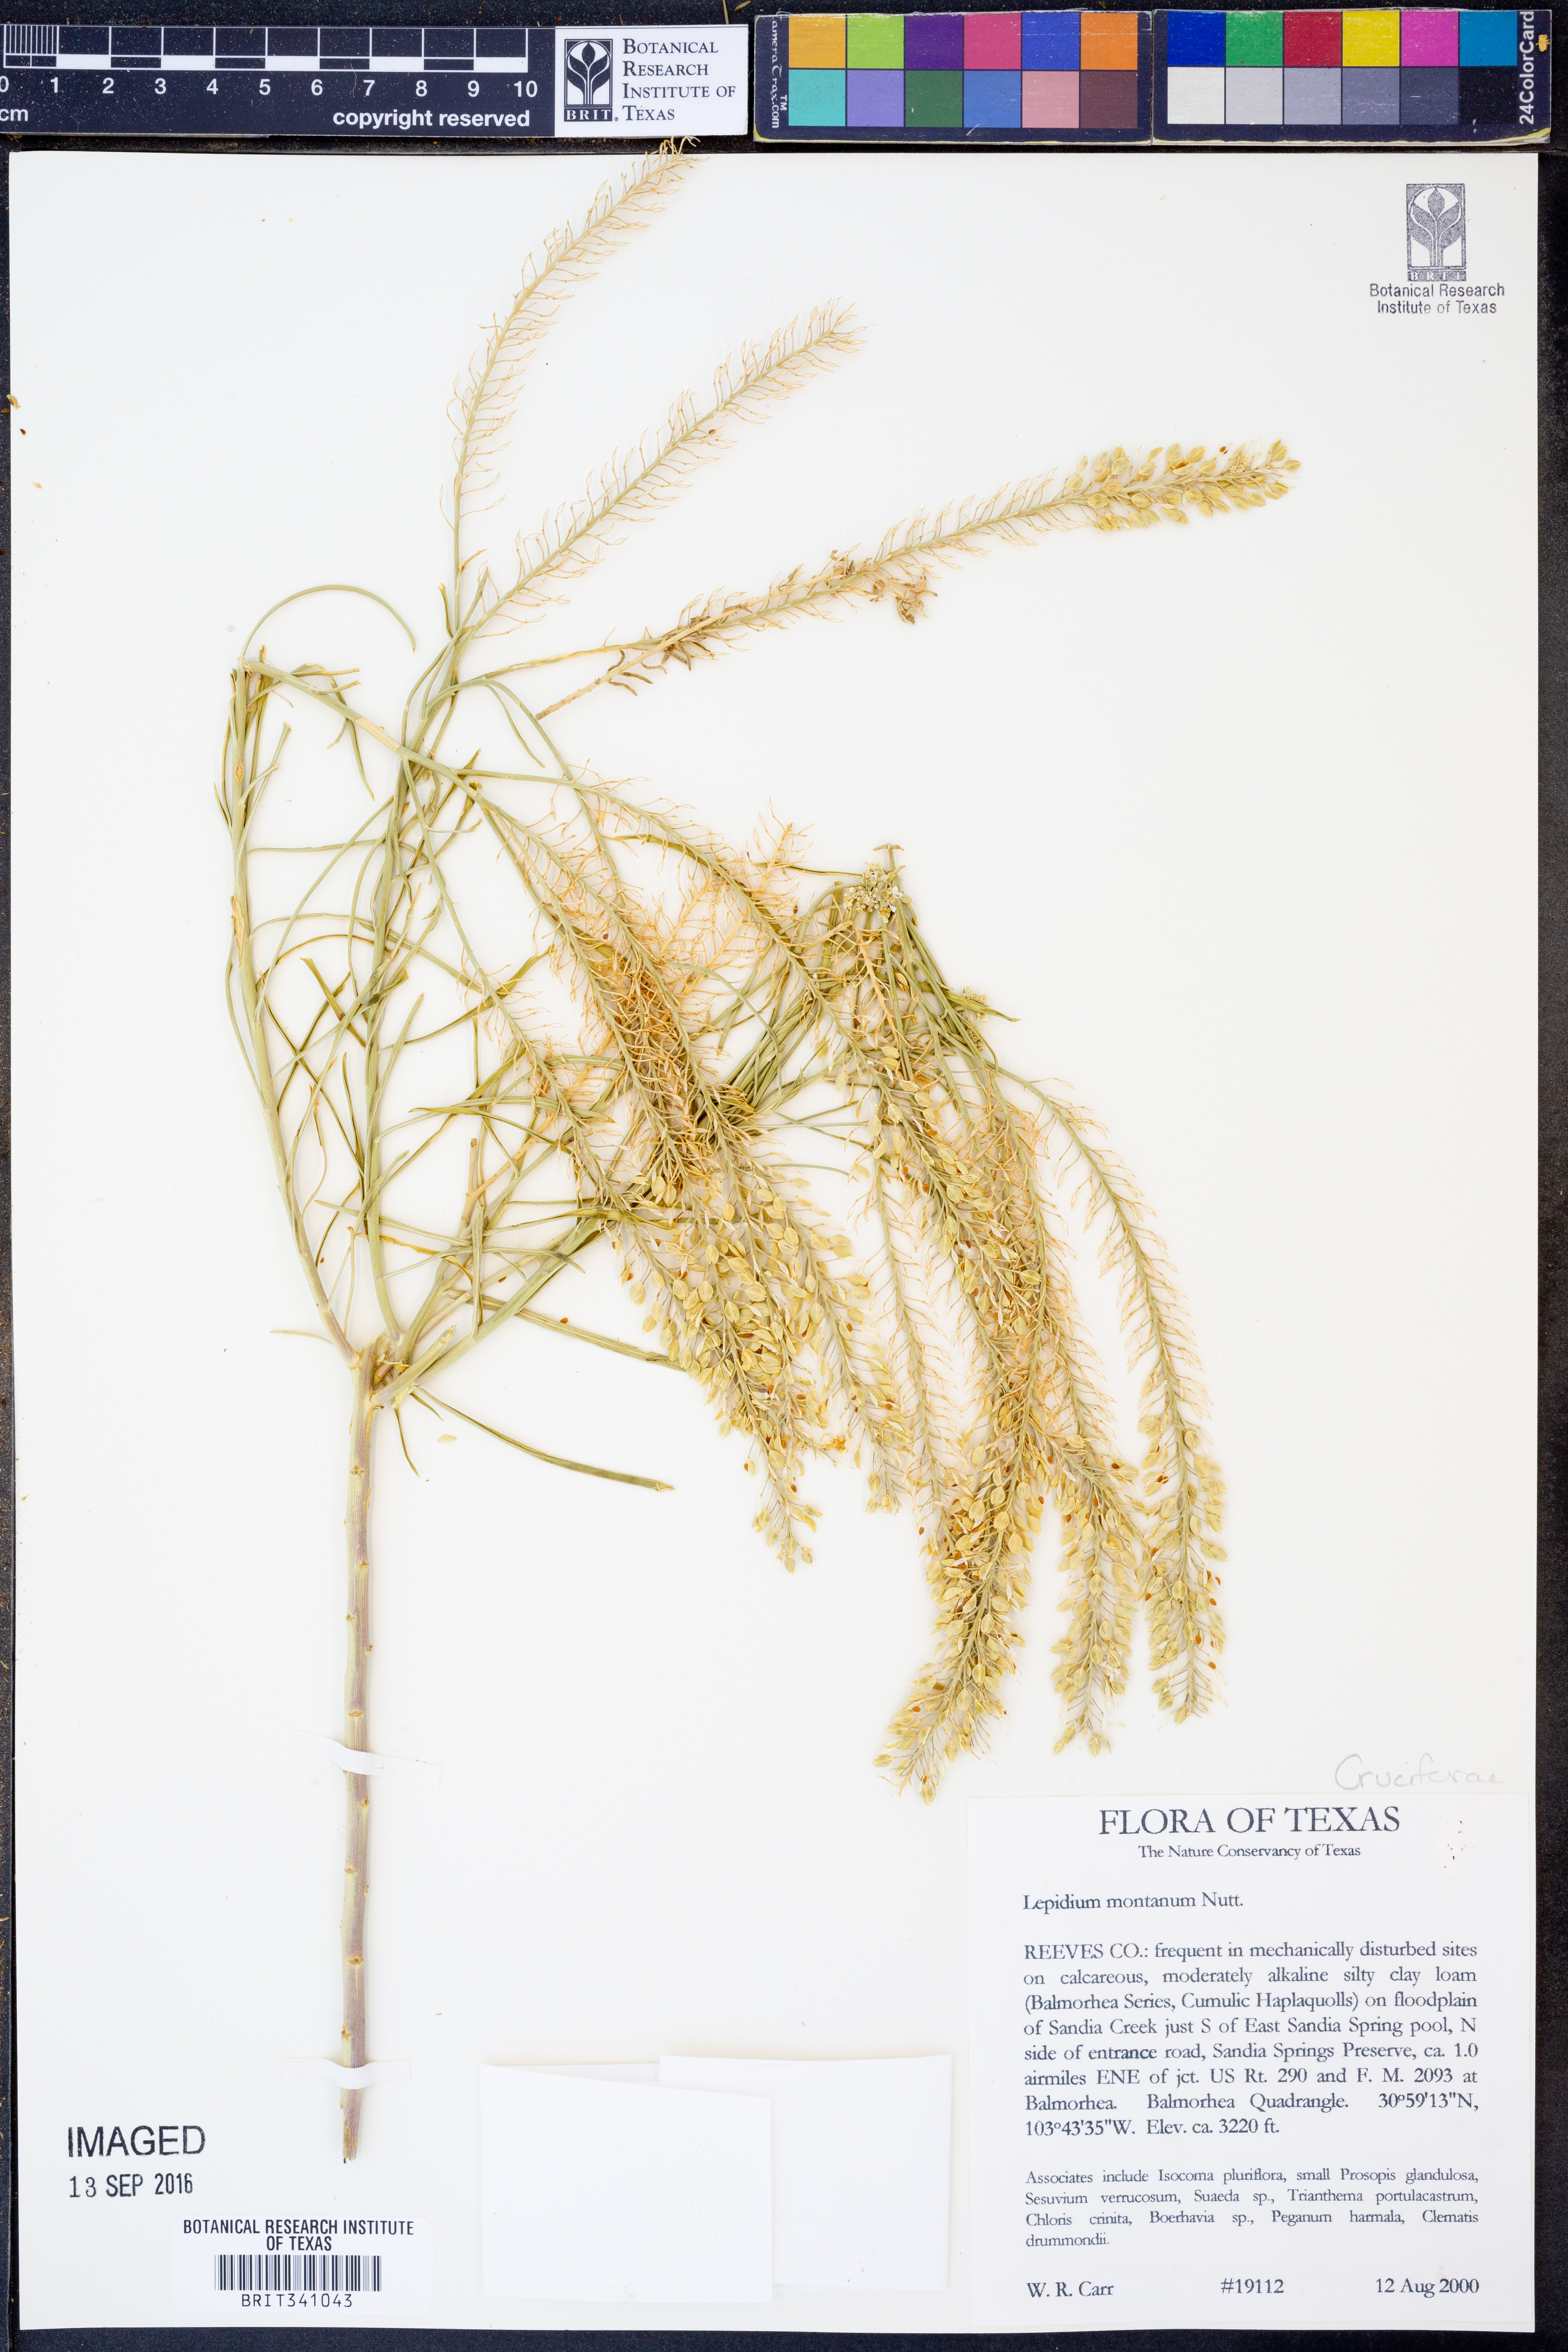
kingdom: Plantae
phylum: Tracheophyta
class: Magnoliopsida
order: Brassicales
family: Brassicaceae
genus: Lepidium
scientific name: Lepidium montanum
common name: Mountain pepperplant
